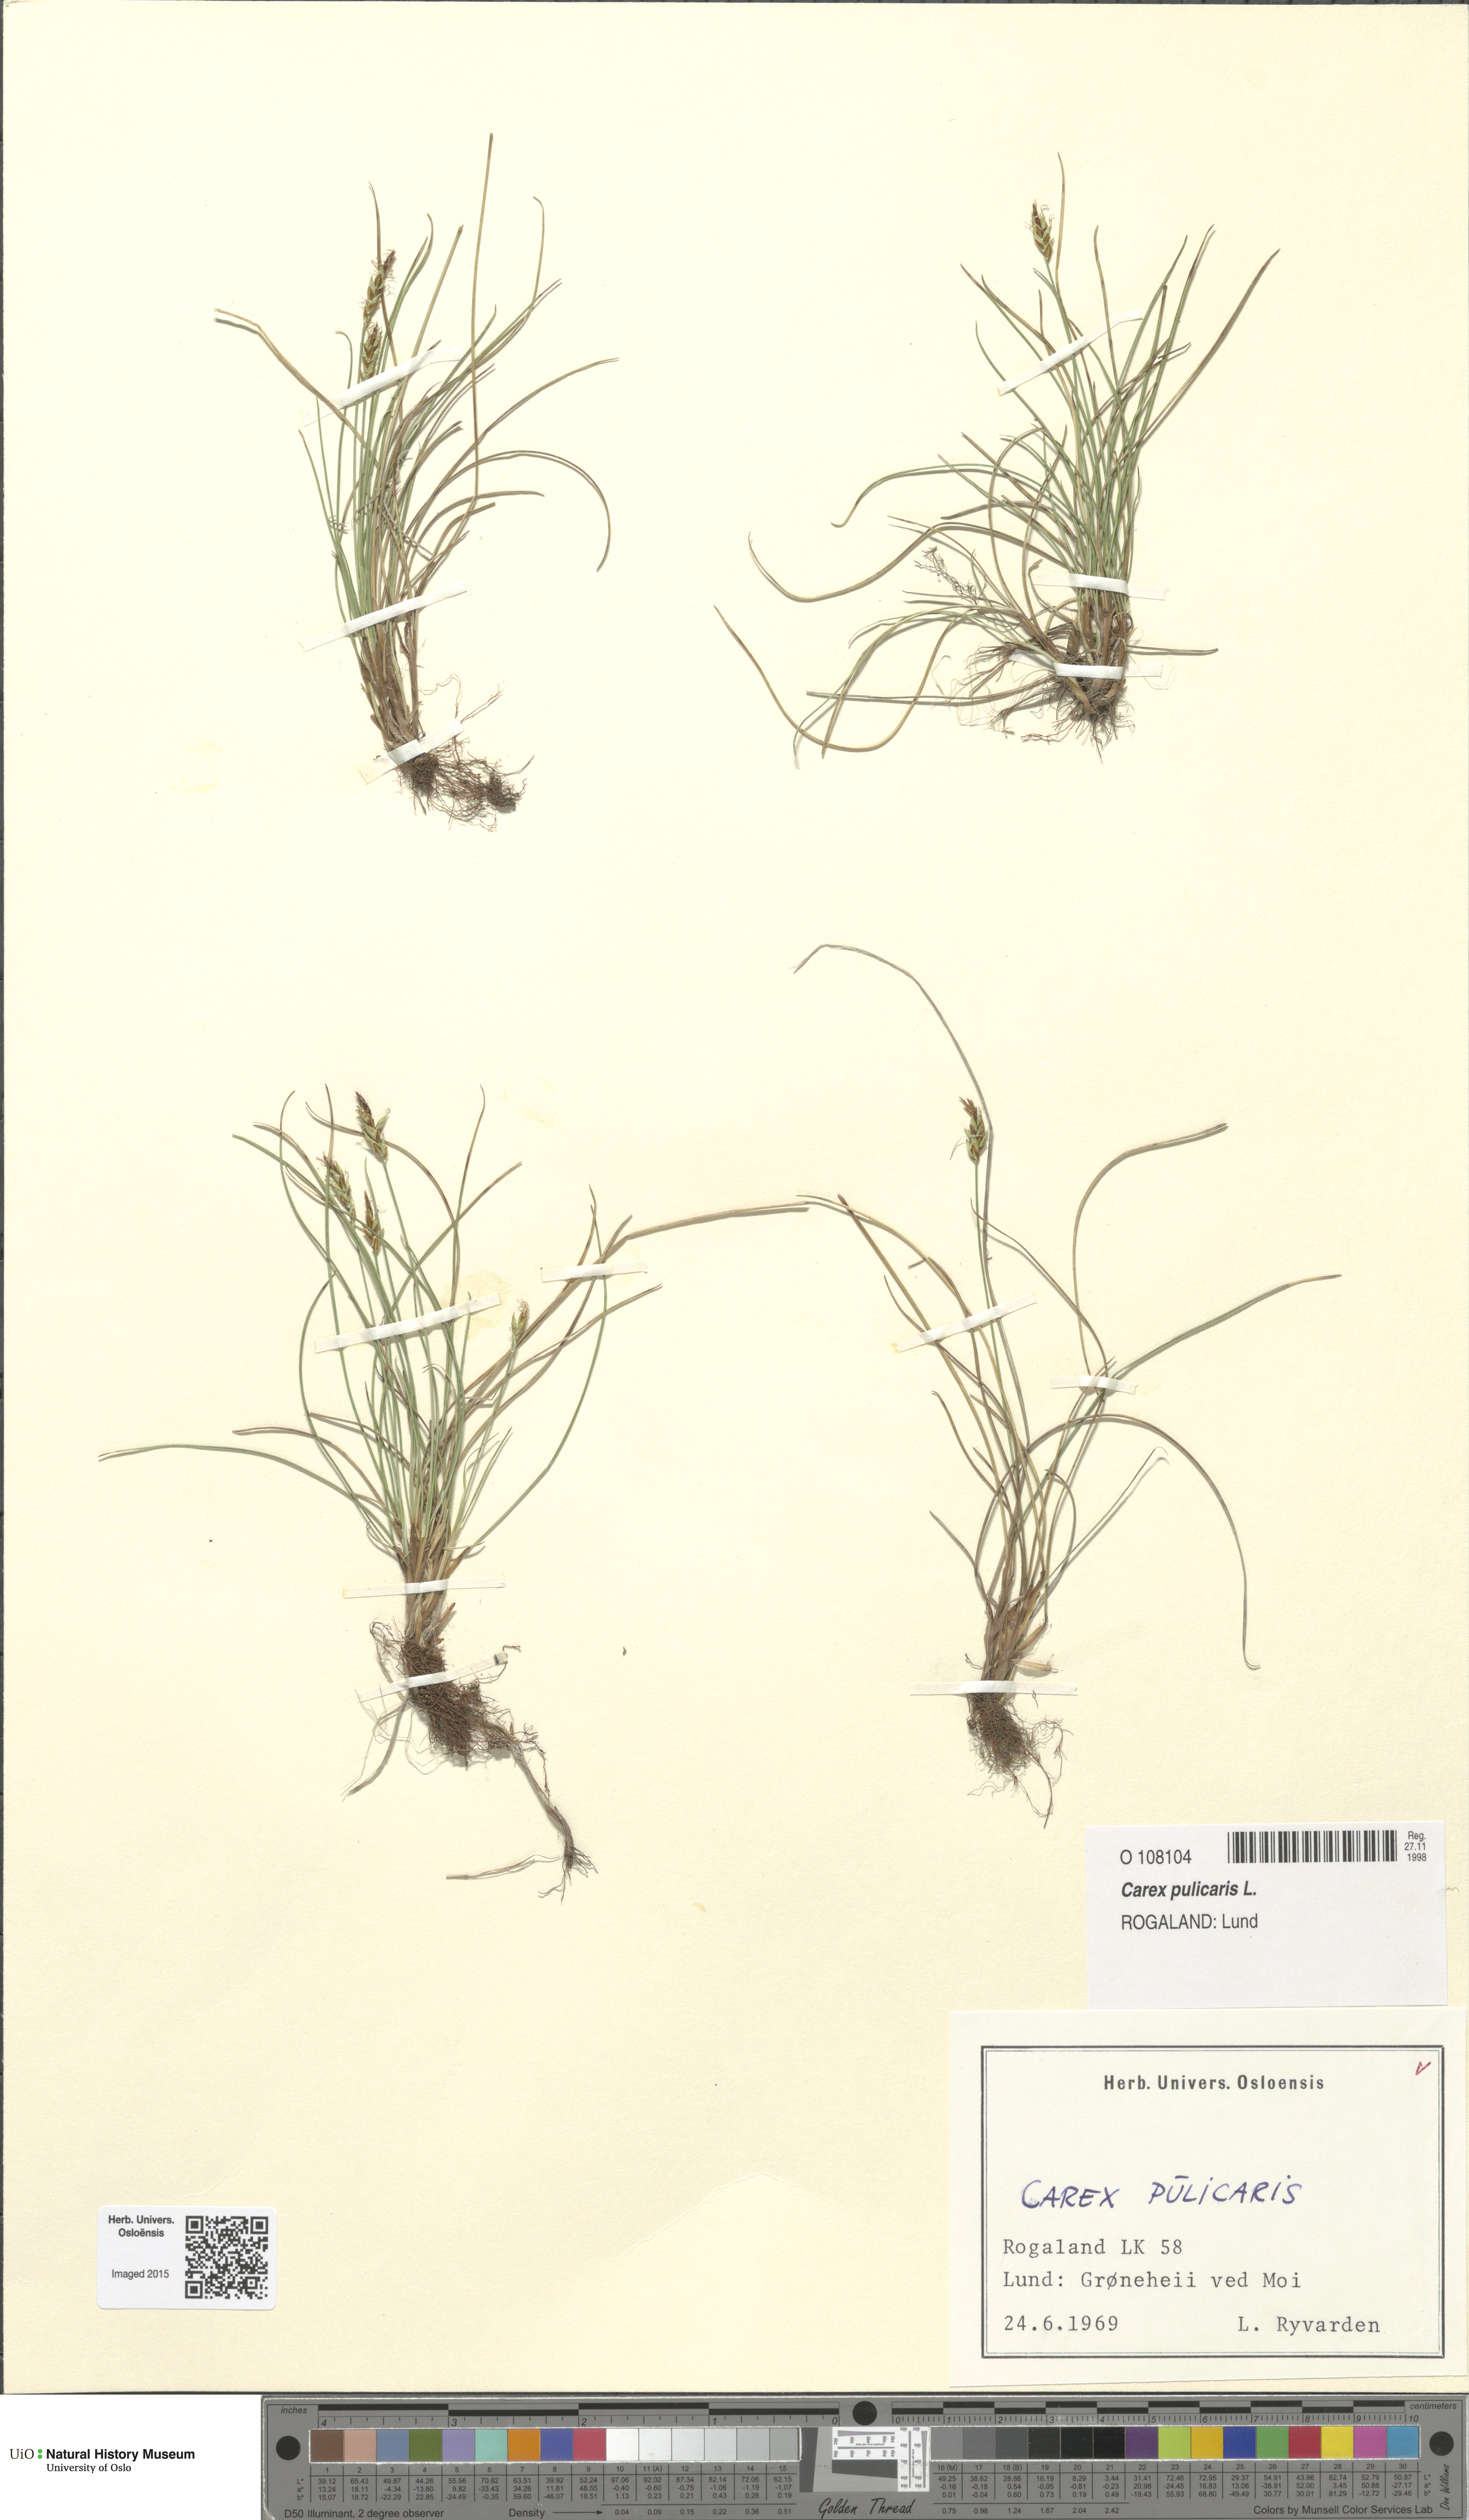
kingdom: Plantae
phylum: Tracheophyta
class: Liliopsida
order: Poales
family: Cyperaceae
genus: Carex
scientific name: Carex pulicaris
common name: Flea sedge
